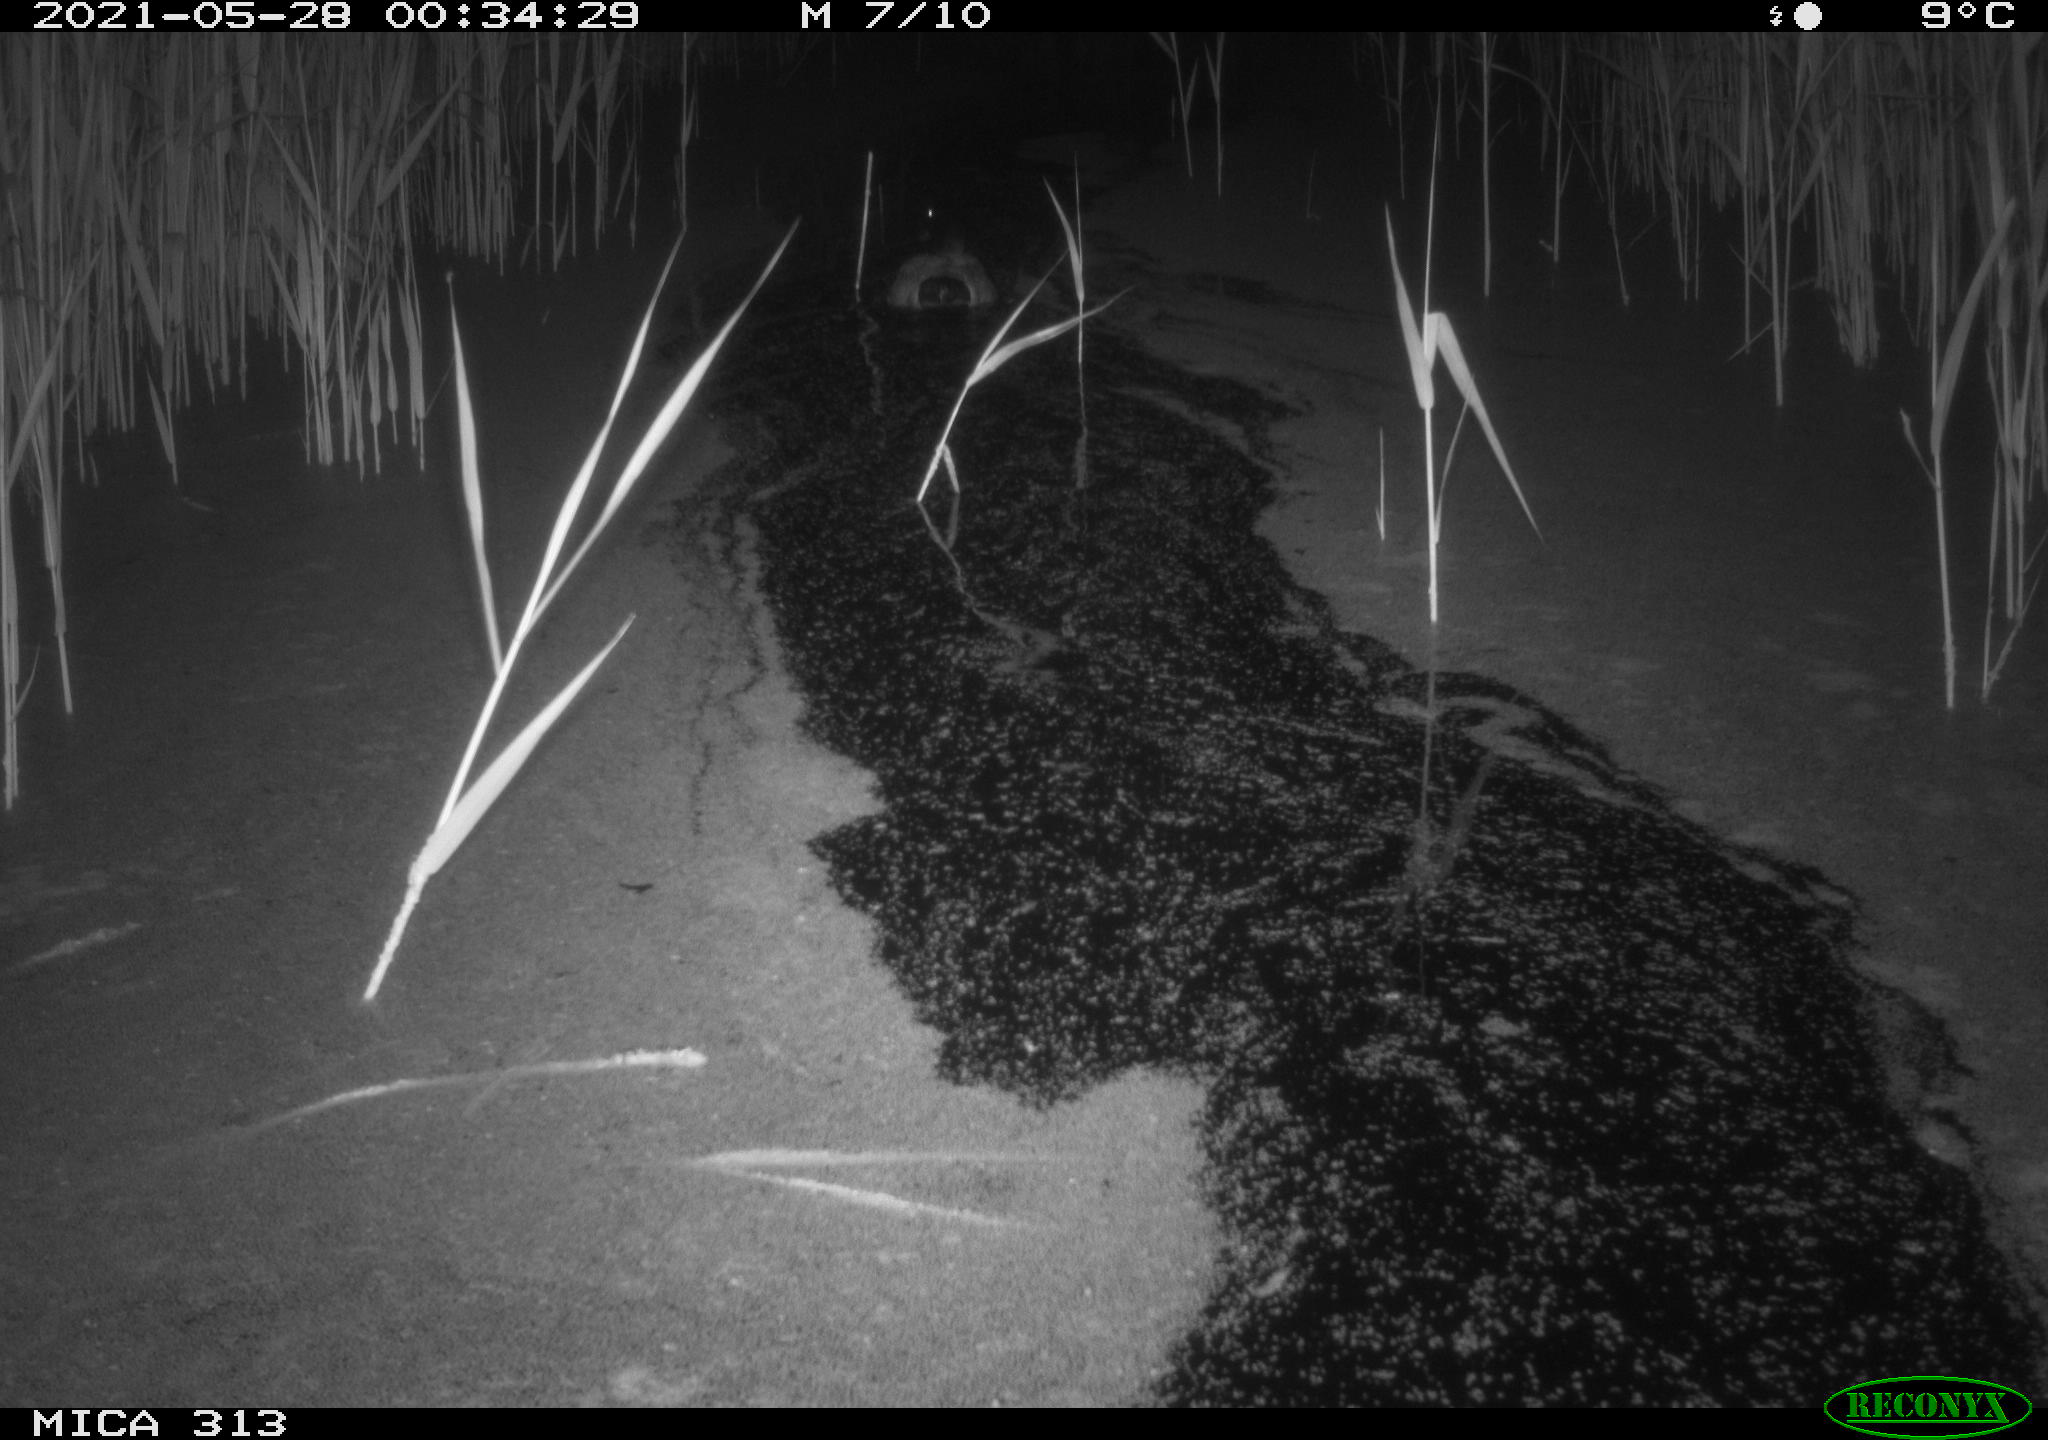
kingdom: Animalia
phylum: Chordata
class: Aves
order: Anseriformes
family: Anatidae
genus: Anas
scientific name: Anas platyrhynchos
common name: Mallard
